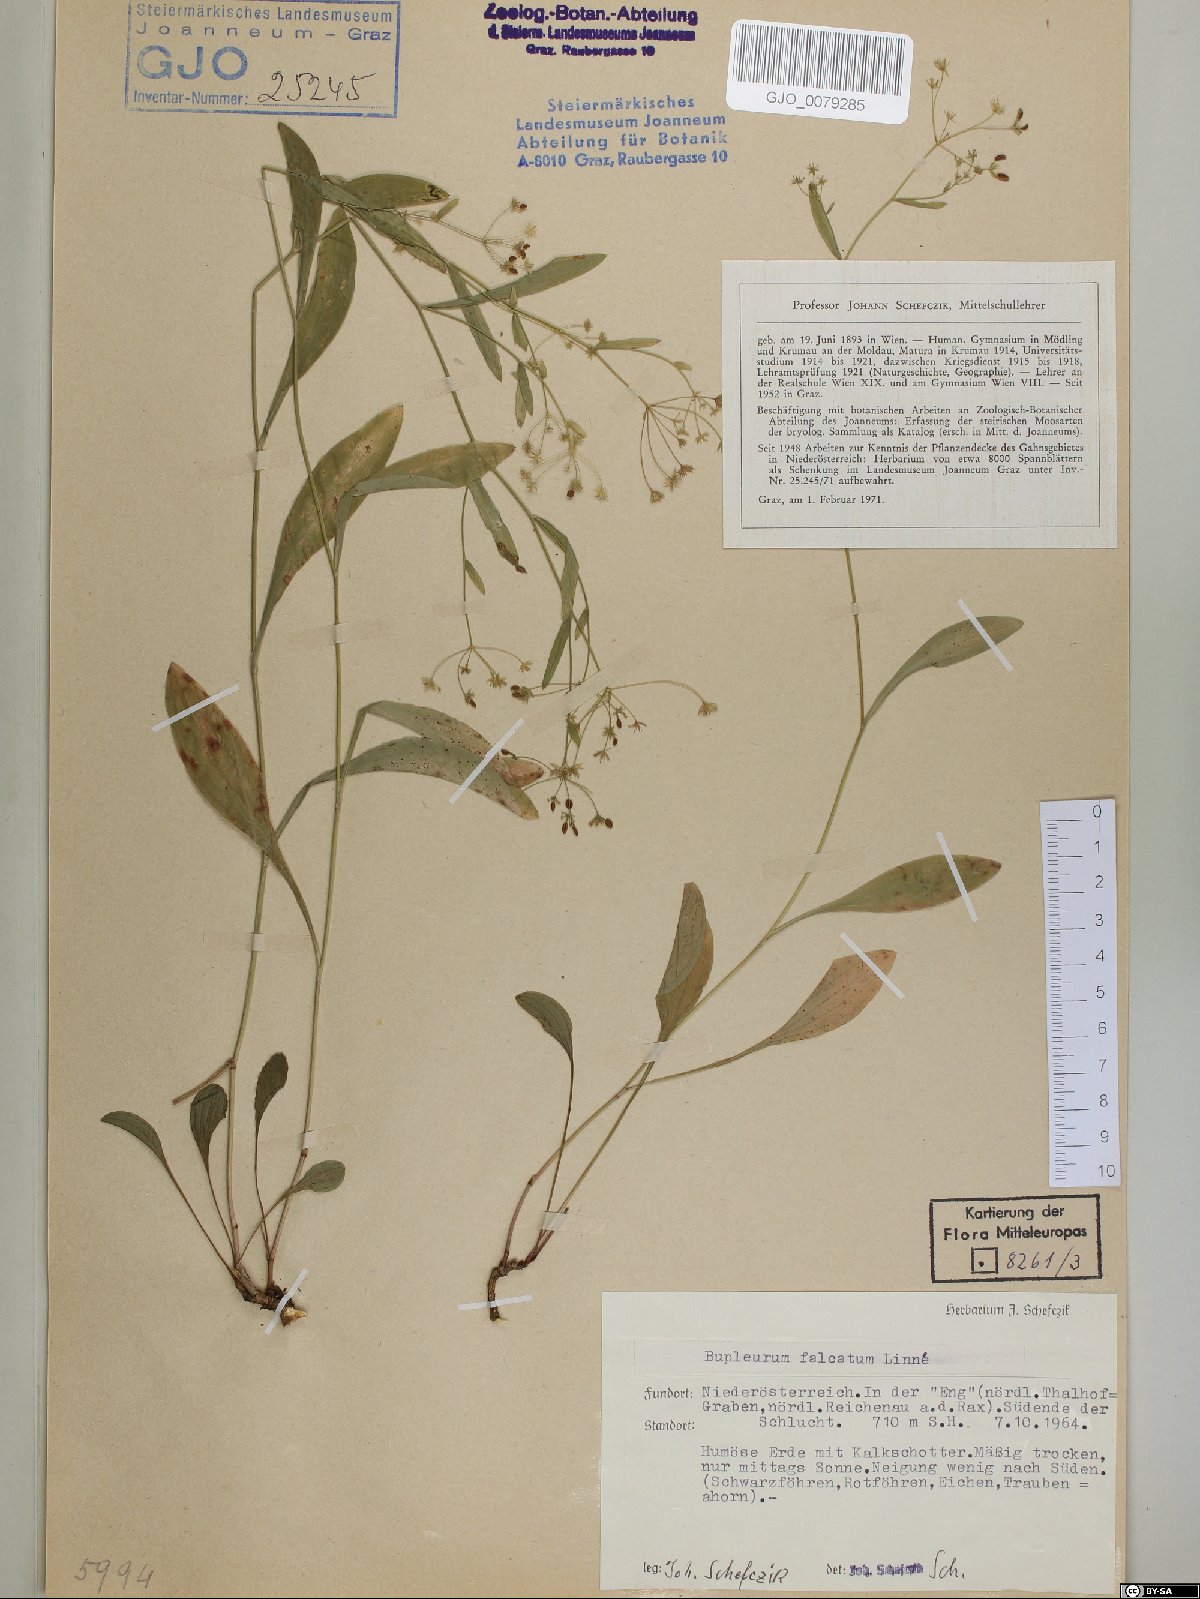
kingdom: Plantae
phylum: Tracheophyta
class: Magnoliopsida
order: Apiales
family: Apiaceae
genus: Bupleurum
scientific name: Bupleurum falcatum
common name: Sickle-leaved hare's-ear
